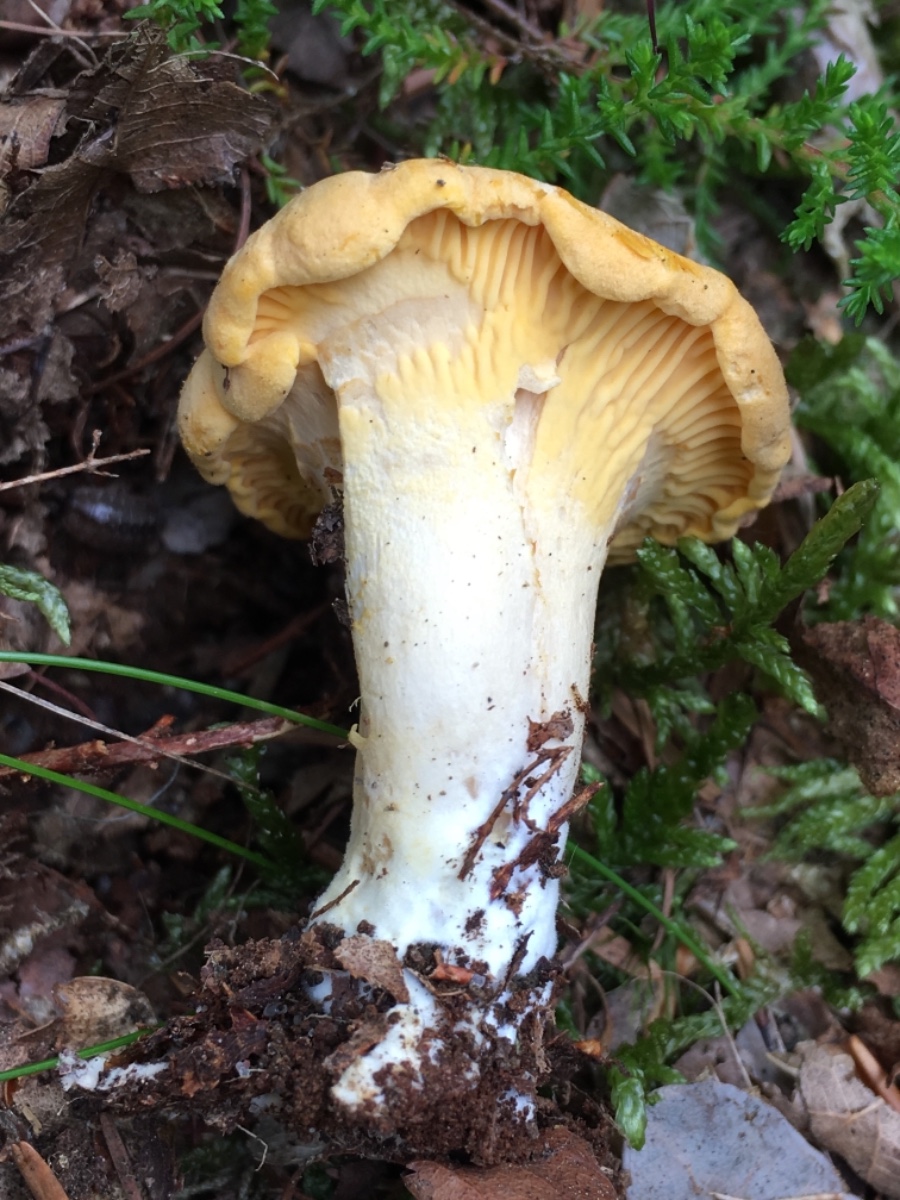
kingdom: Fungi
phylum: Basidiomycota
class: Agaricomycetes
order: Cantharellales
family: Hydnaceae
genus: Cantharellus
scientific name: Cantharellus amethysteus
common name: ametyst-kantarel
